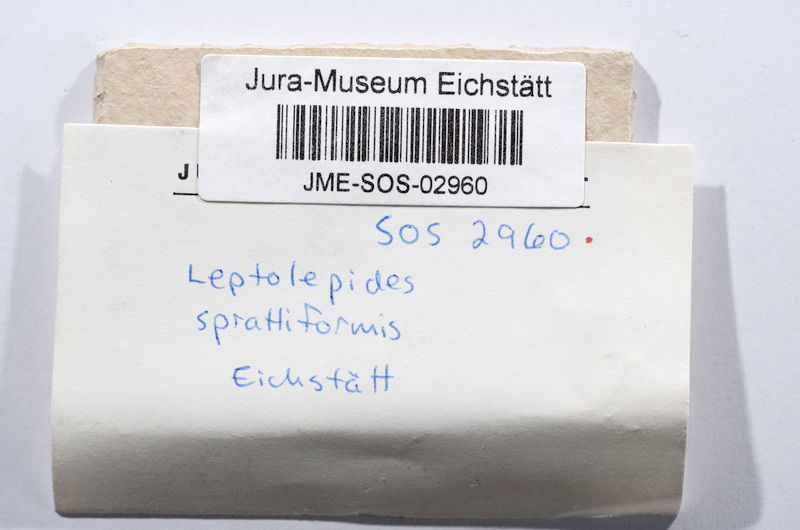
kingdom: Animalia
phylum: Chordata
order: Salmoniformes
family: Orthogonikleithridae
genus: Leptolepides
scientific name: Leptolepides sprattiformis
